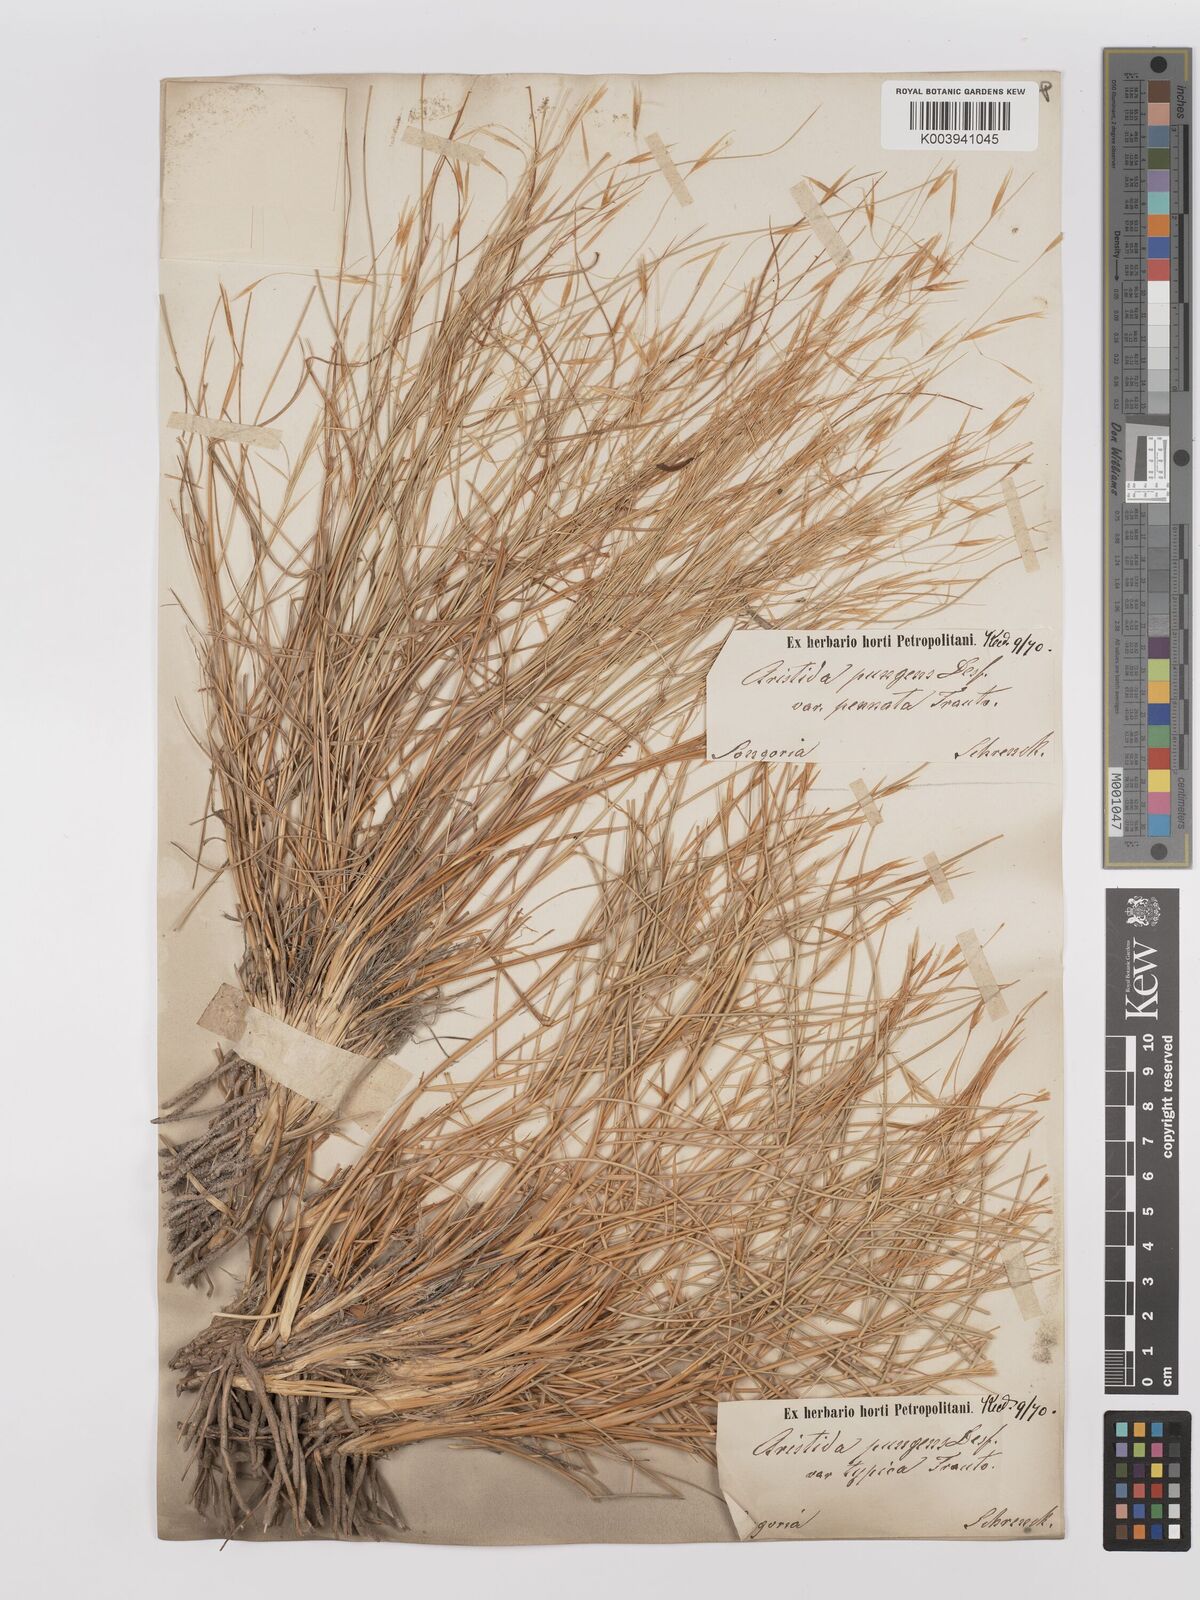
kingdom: Plantae
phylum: Tracheophyta
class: Liliopsida
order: Poales
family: Poaceae
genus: Stipagrostis
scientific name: Stipagrostis pungens
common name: Three-awn grass
